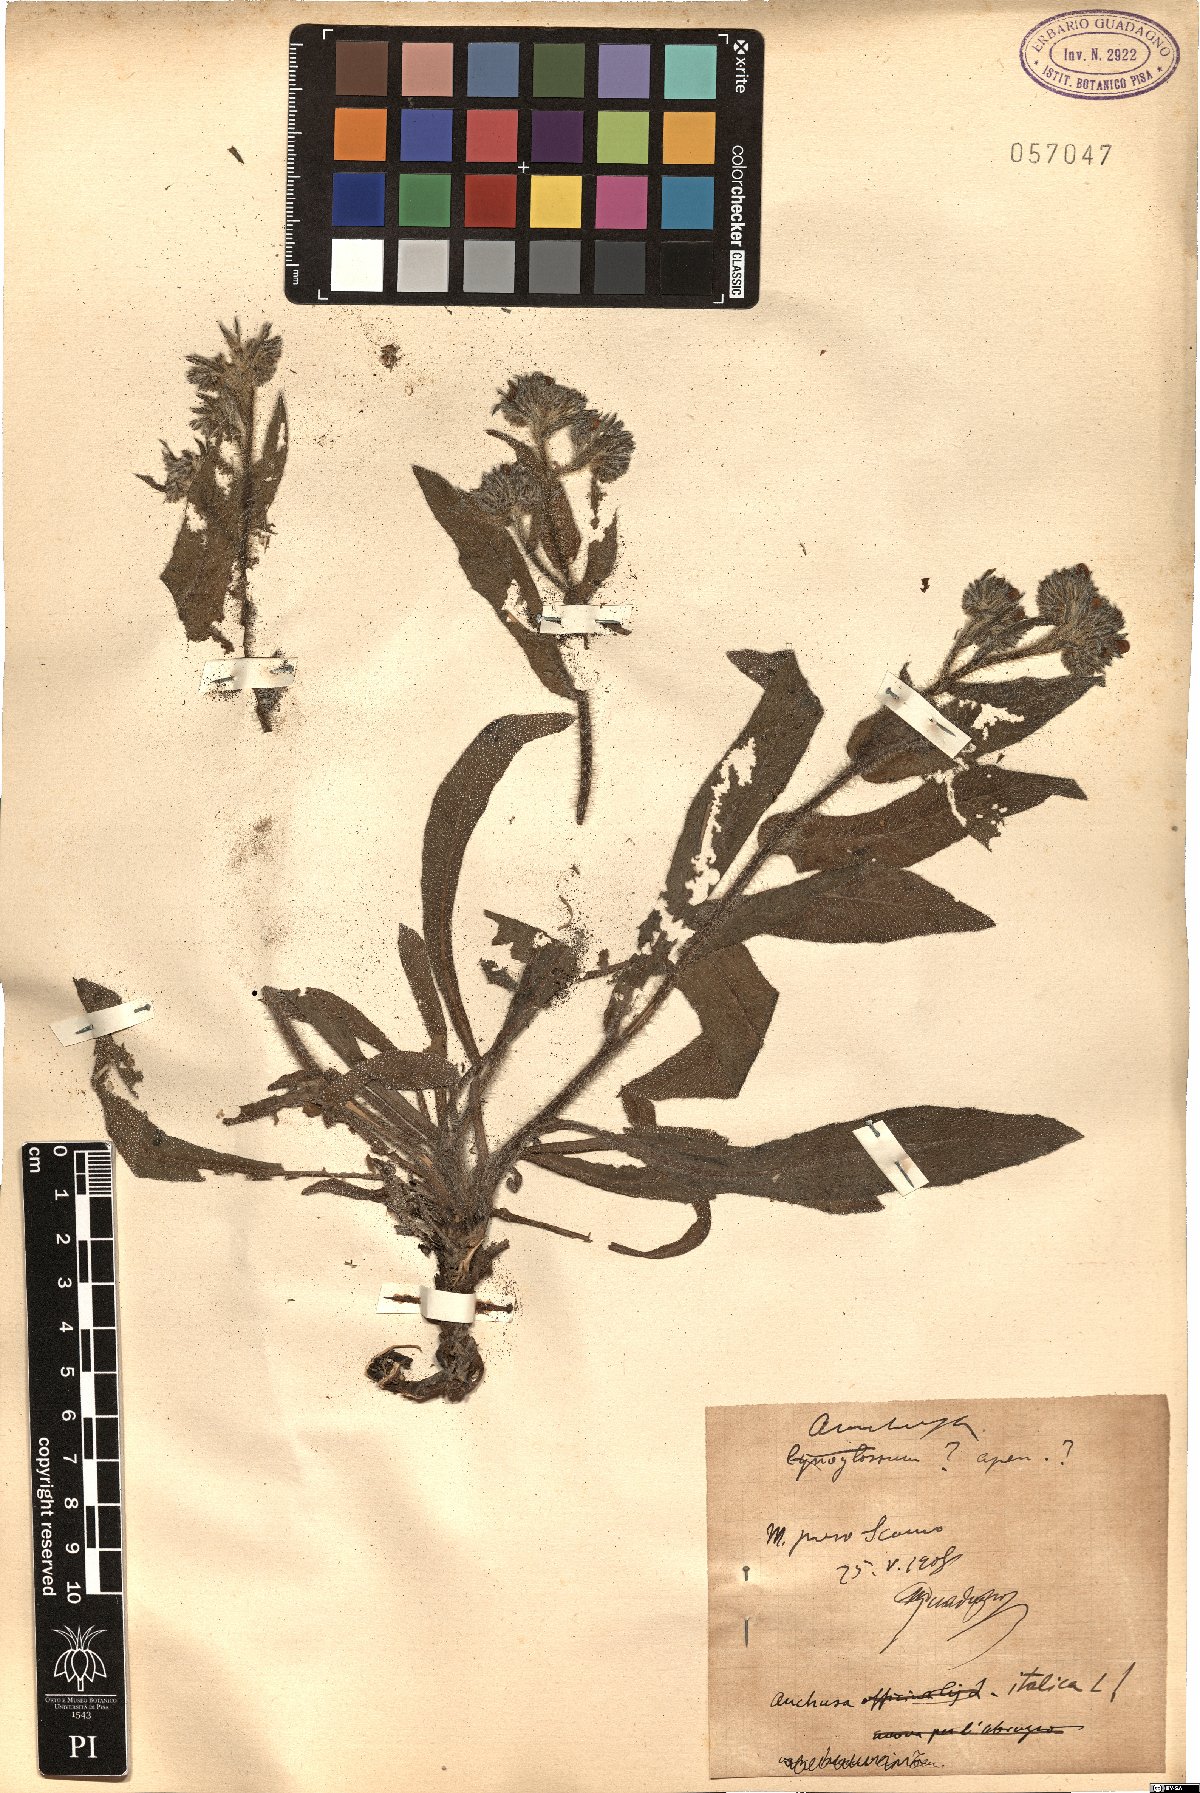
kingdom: Plantae
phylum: Tracheophyta
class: Magnoliopsida
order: Boraginales
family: Boraginaceae
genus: Anchusa
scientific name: Anchusa azurea
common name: Garden anchusa
